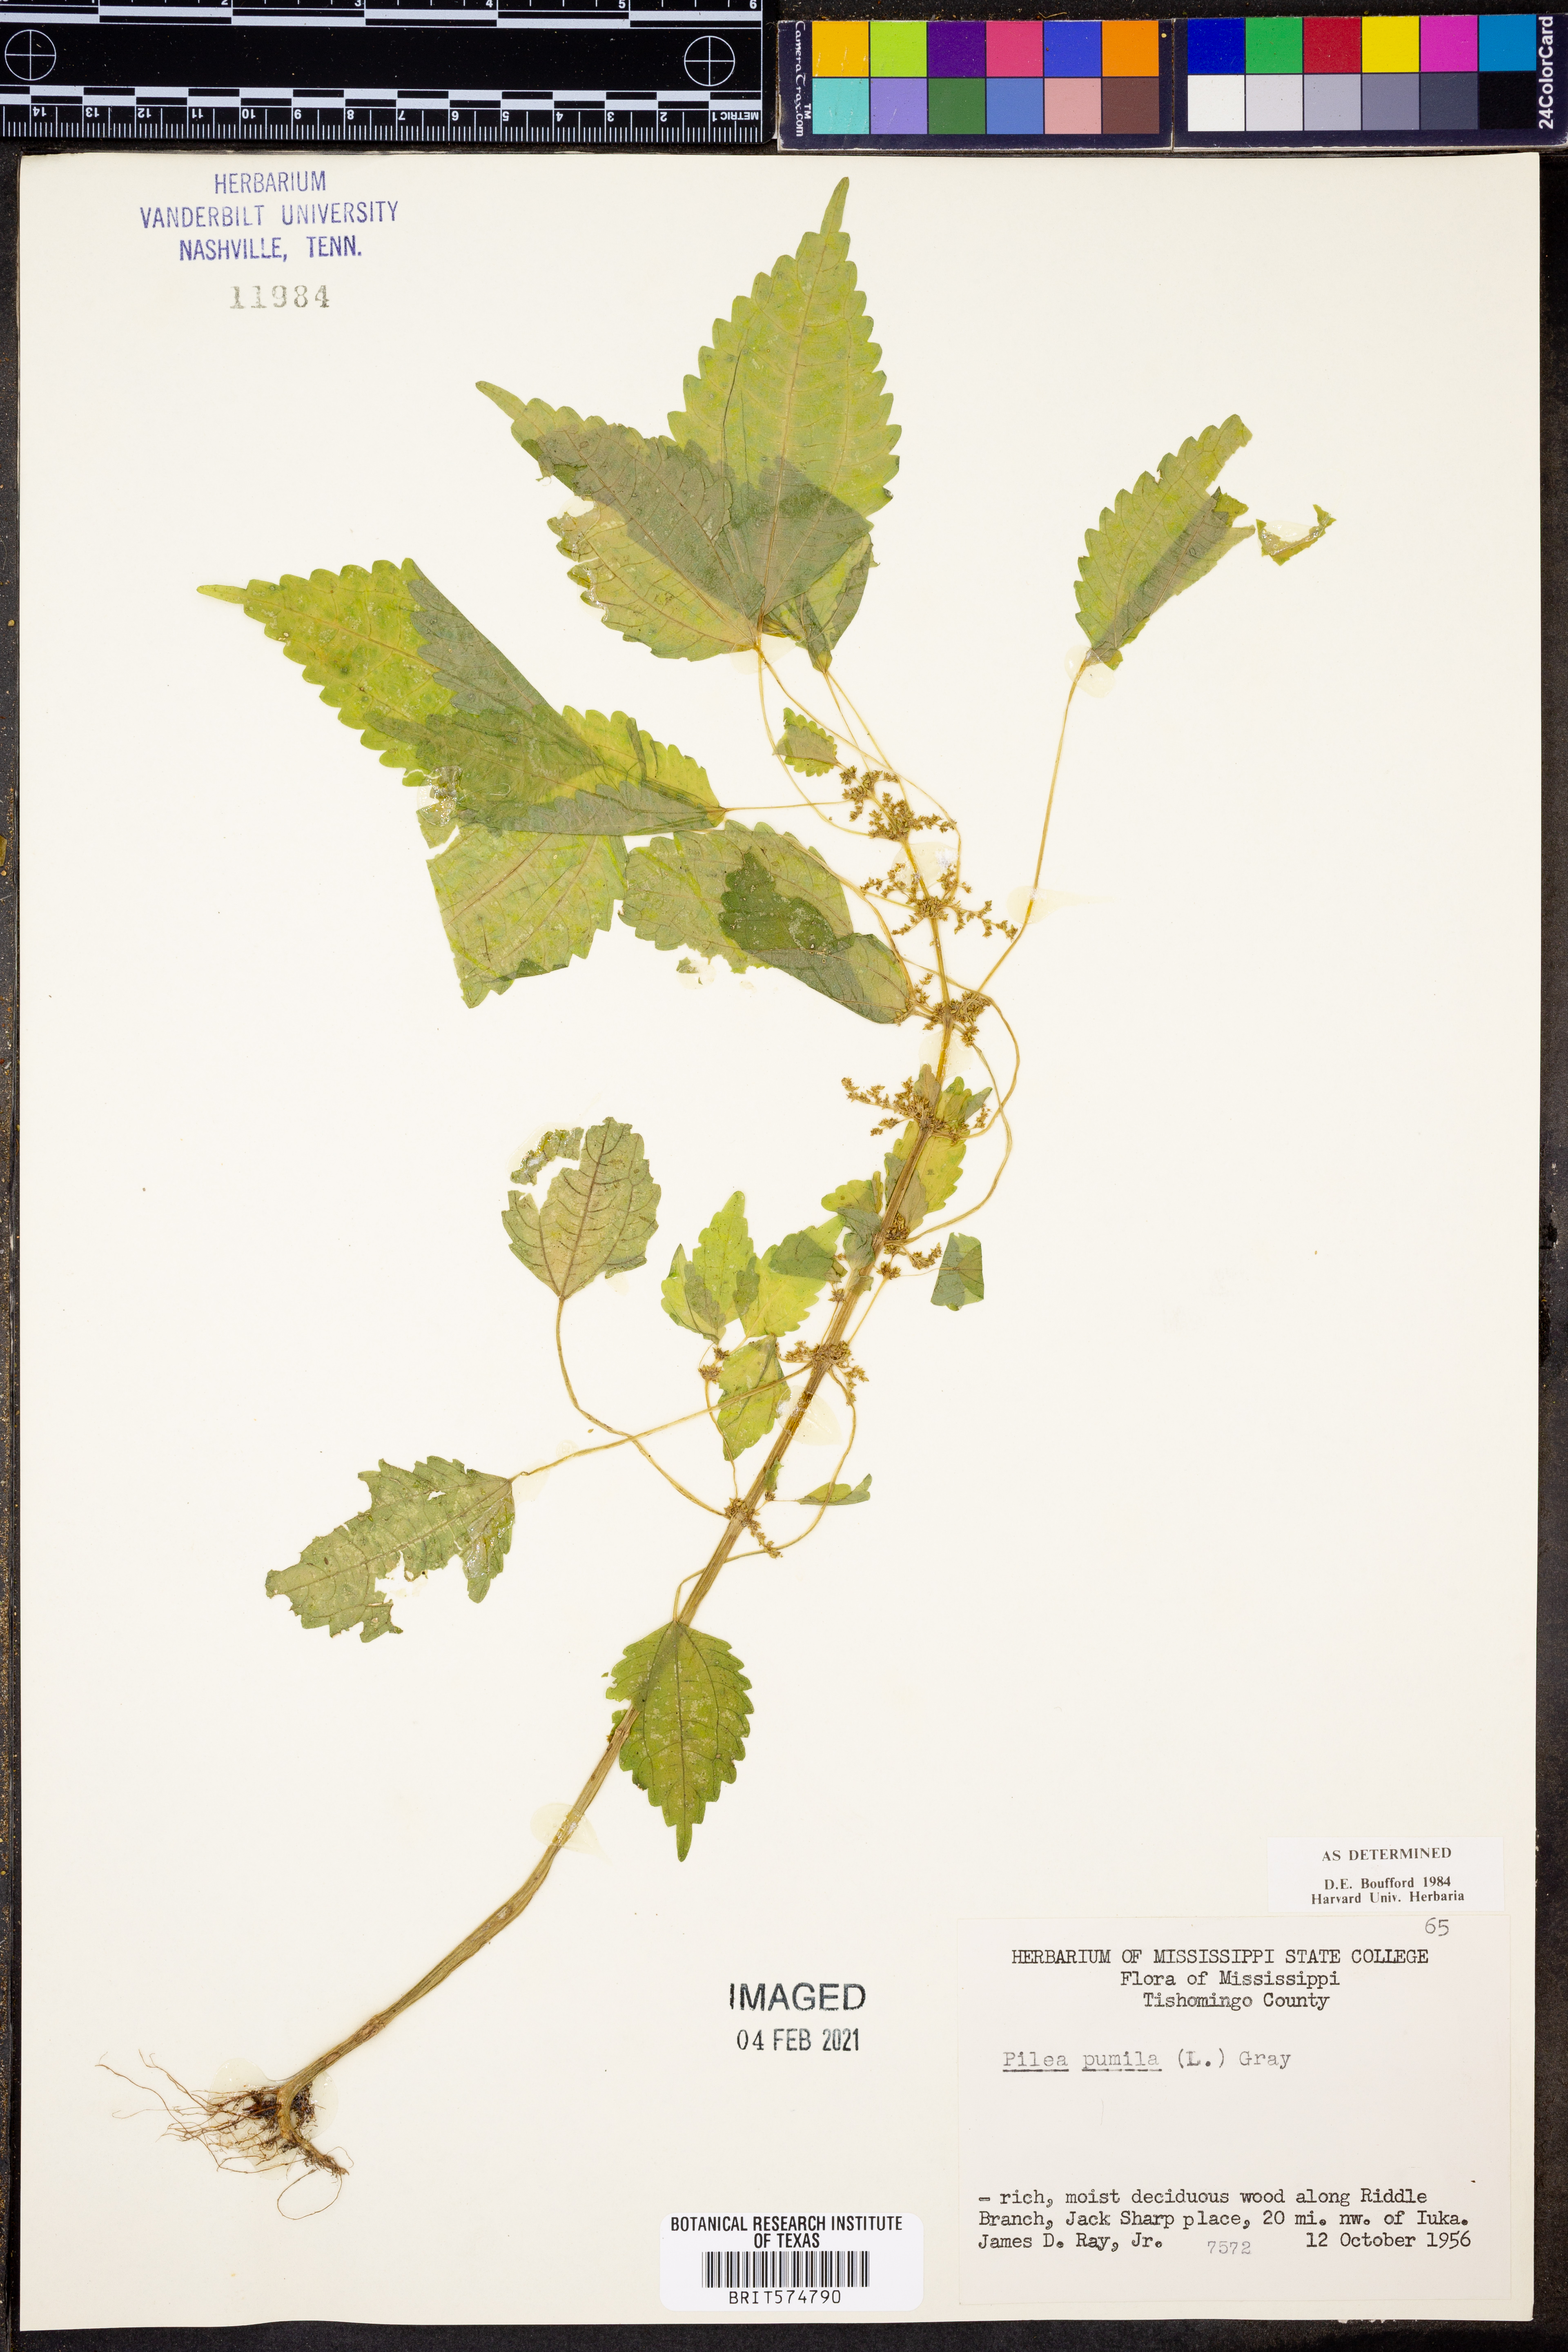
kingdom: Plantae
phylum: Tracheophyta
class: Magnoliopsida
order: Rosales
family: Urticaceae
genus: Pilea
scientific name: Pilea pumila
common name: Clearweed
